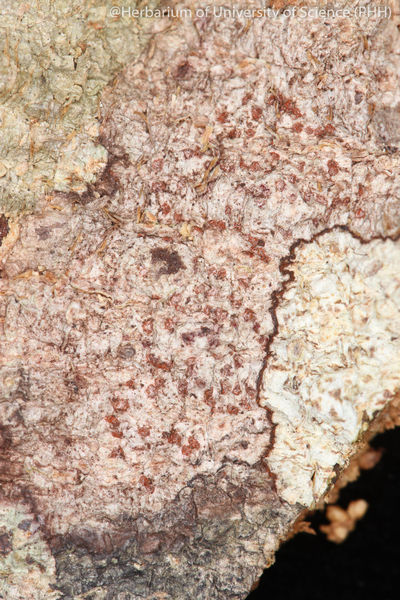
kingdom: Fungi
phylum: Ascomycota
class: Arthoniomycetes
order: Arthoniales
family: Arthoniaceae
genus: Arthonia
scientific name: Arthonia
